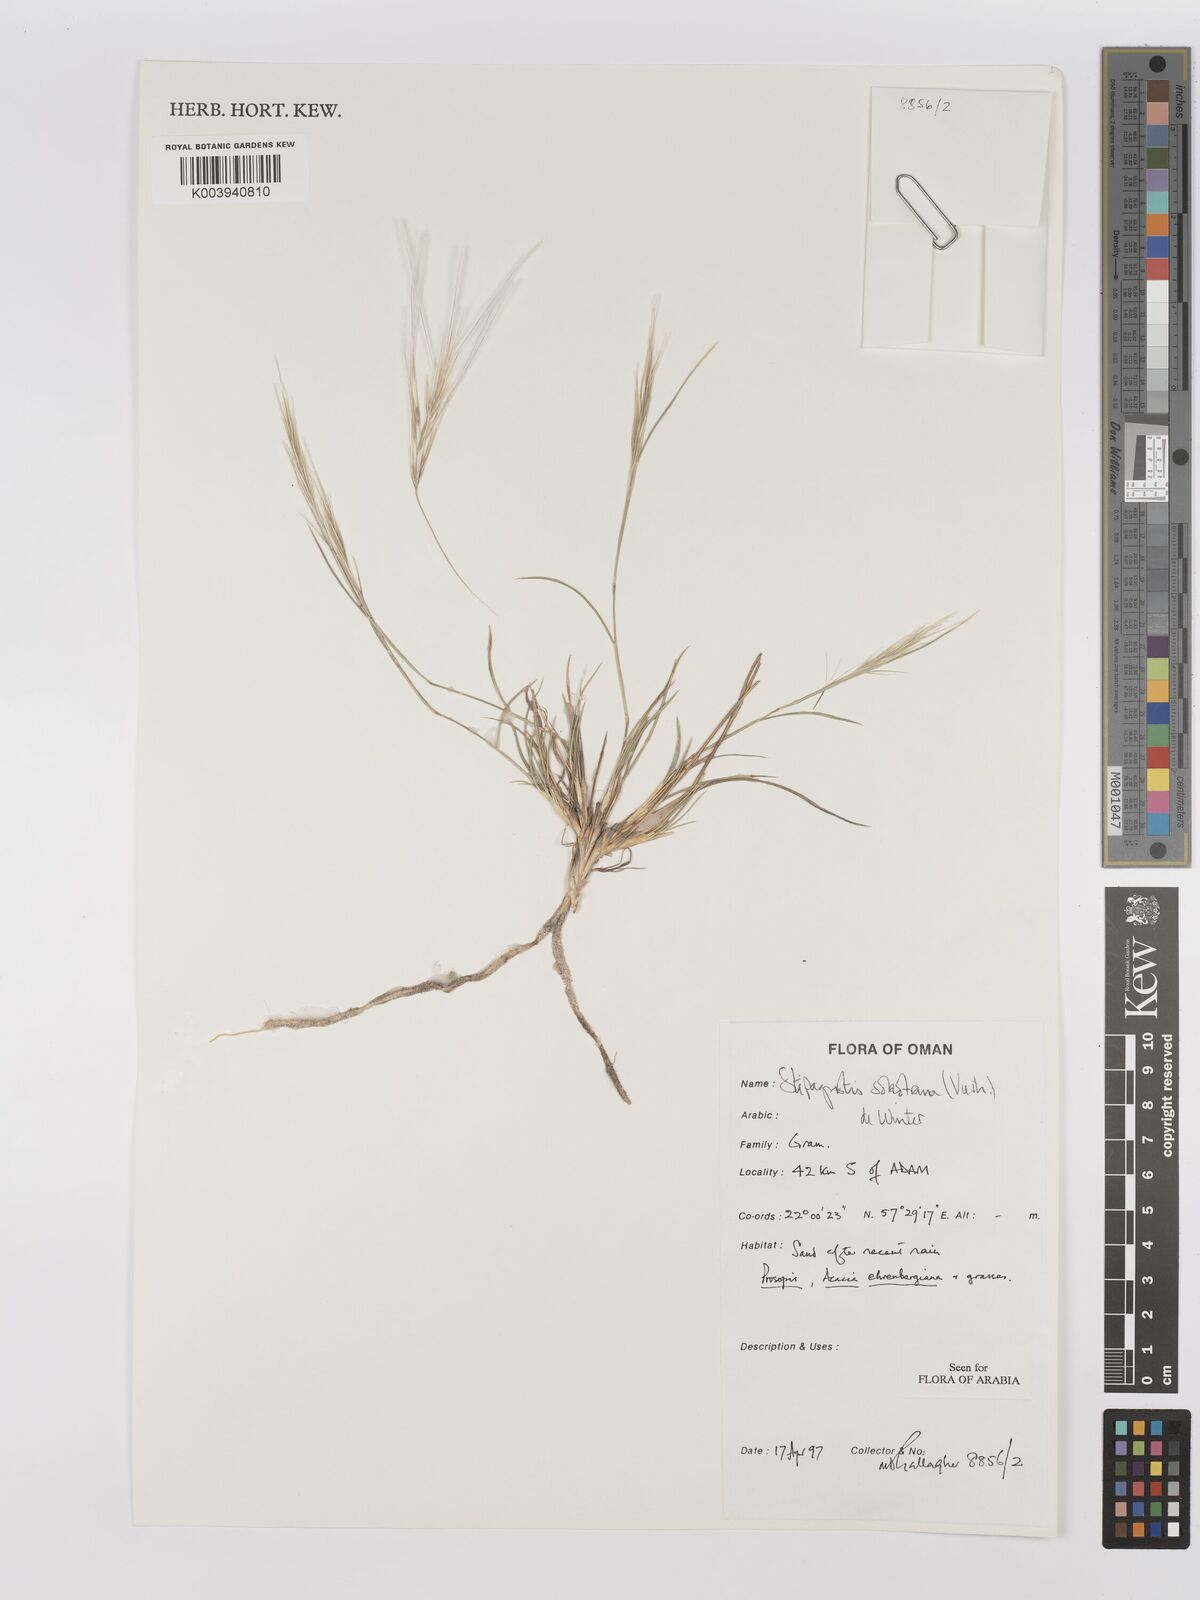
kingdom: Plantae
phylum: Tracheophyta
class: Liliopsida
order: Poales
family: Poaceae
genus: Stipagrostis
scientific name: Stipagrostis sokotrana
